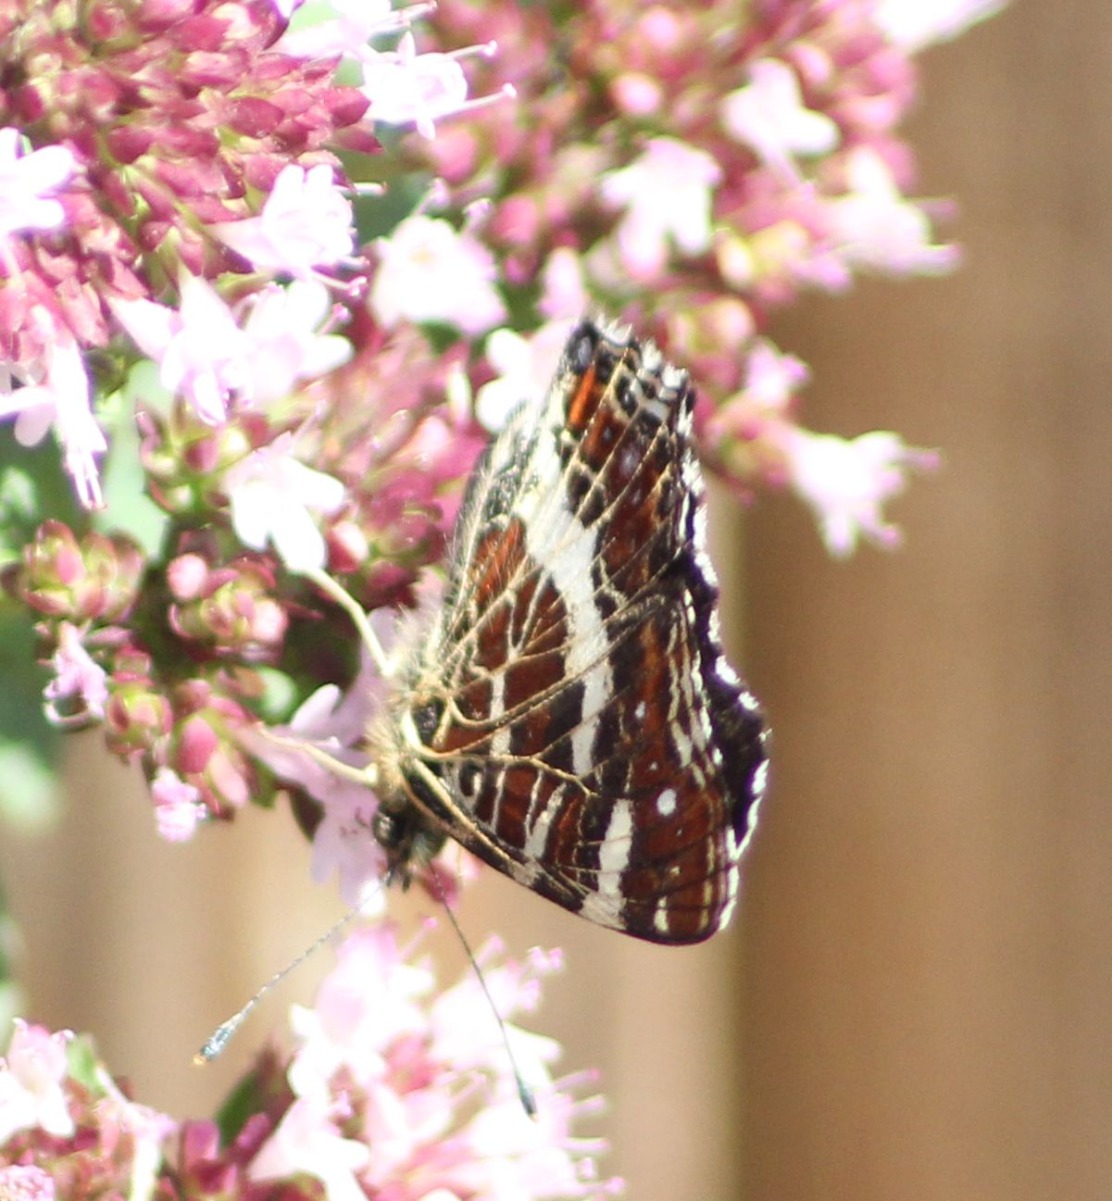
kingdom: Animalia
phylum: Arthropoda
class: Insecta
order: Lepidoptera
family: Nymphalidae
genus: Araschnia
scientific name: Araschnia levana
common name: Nældesommerfugl
